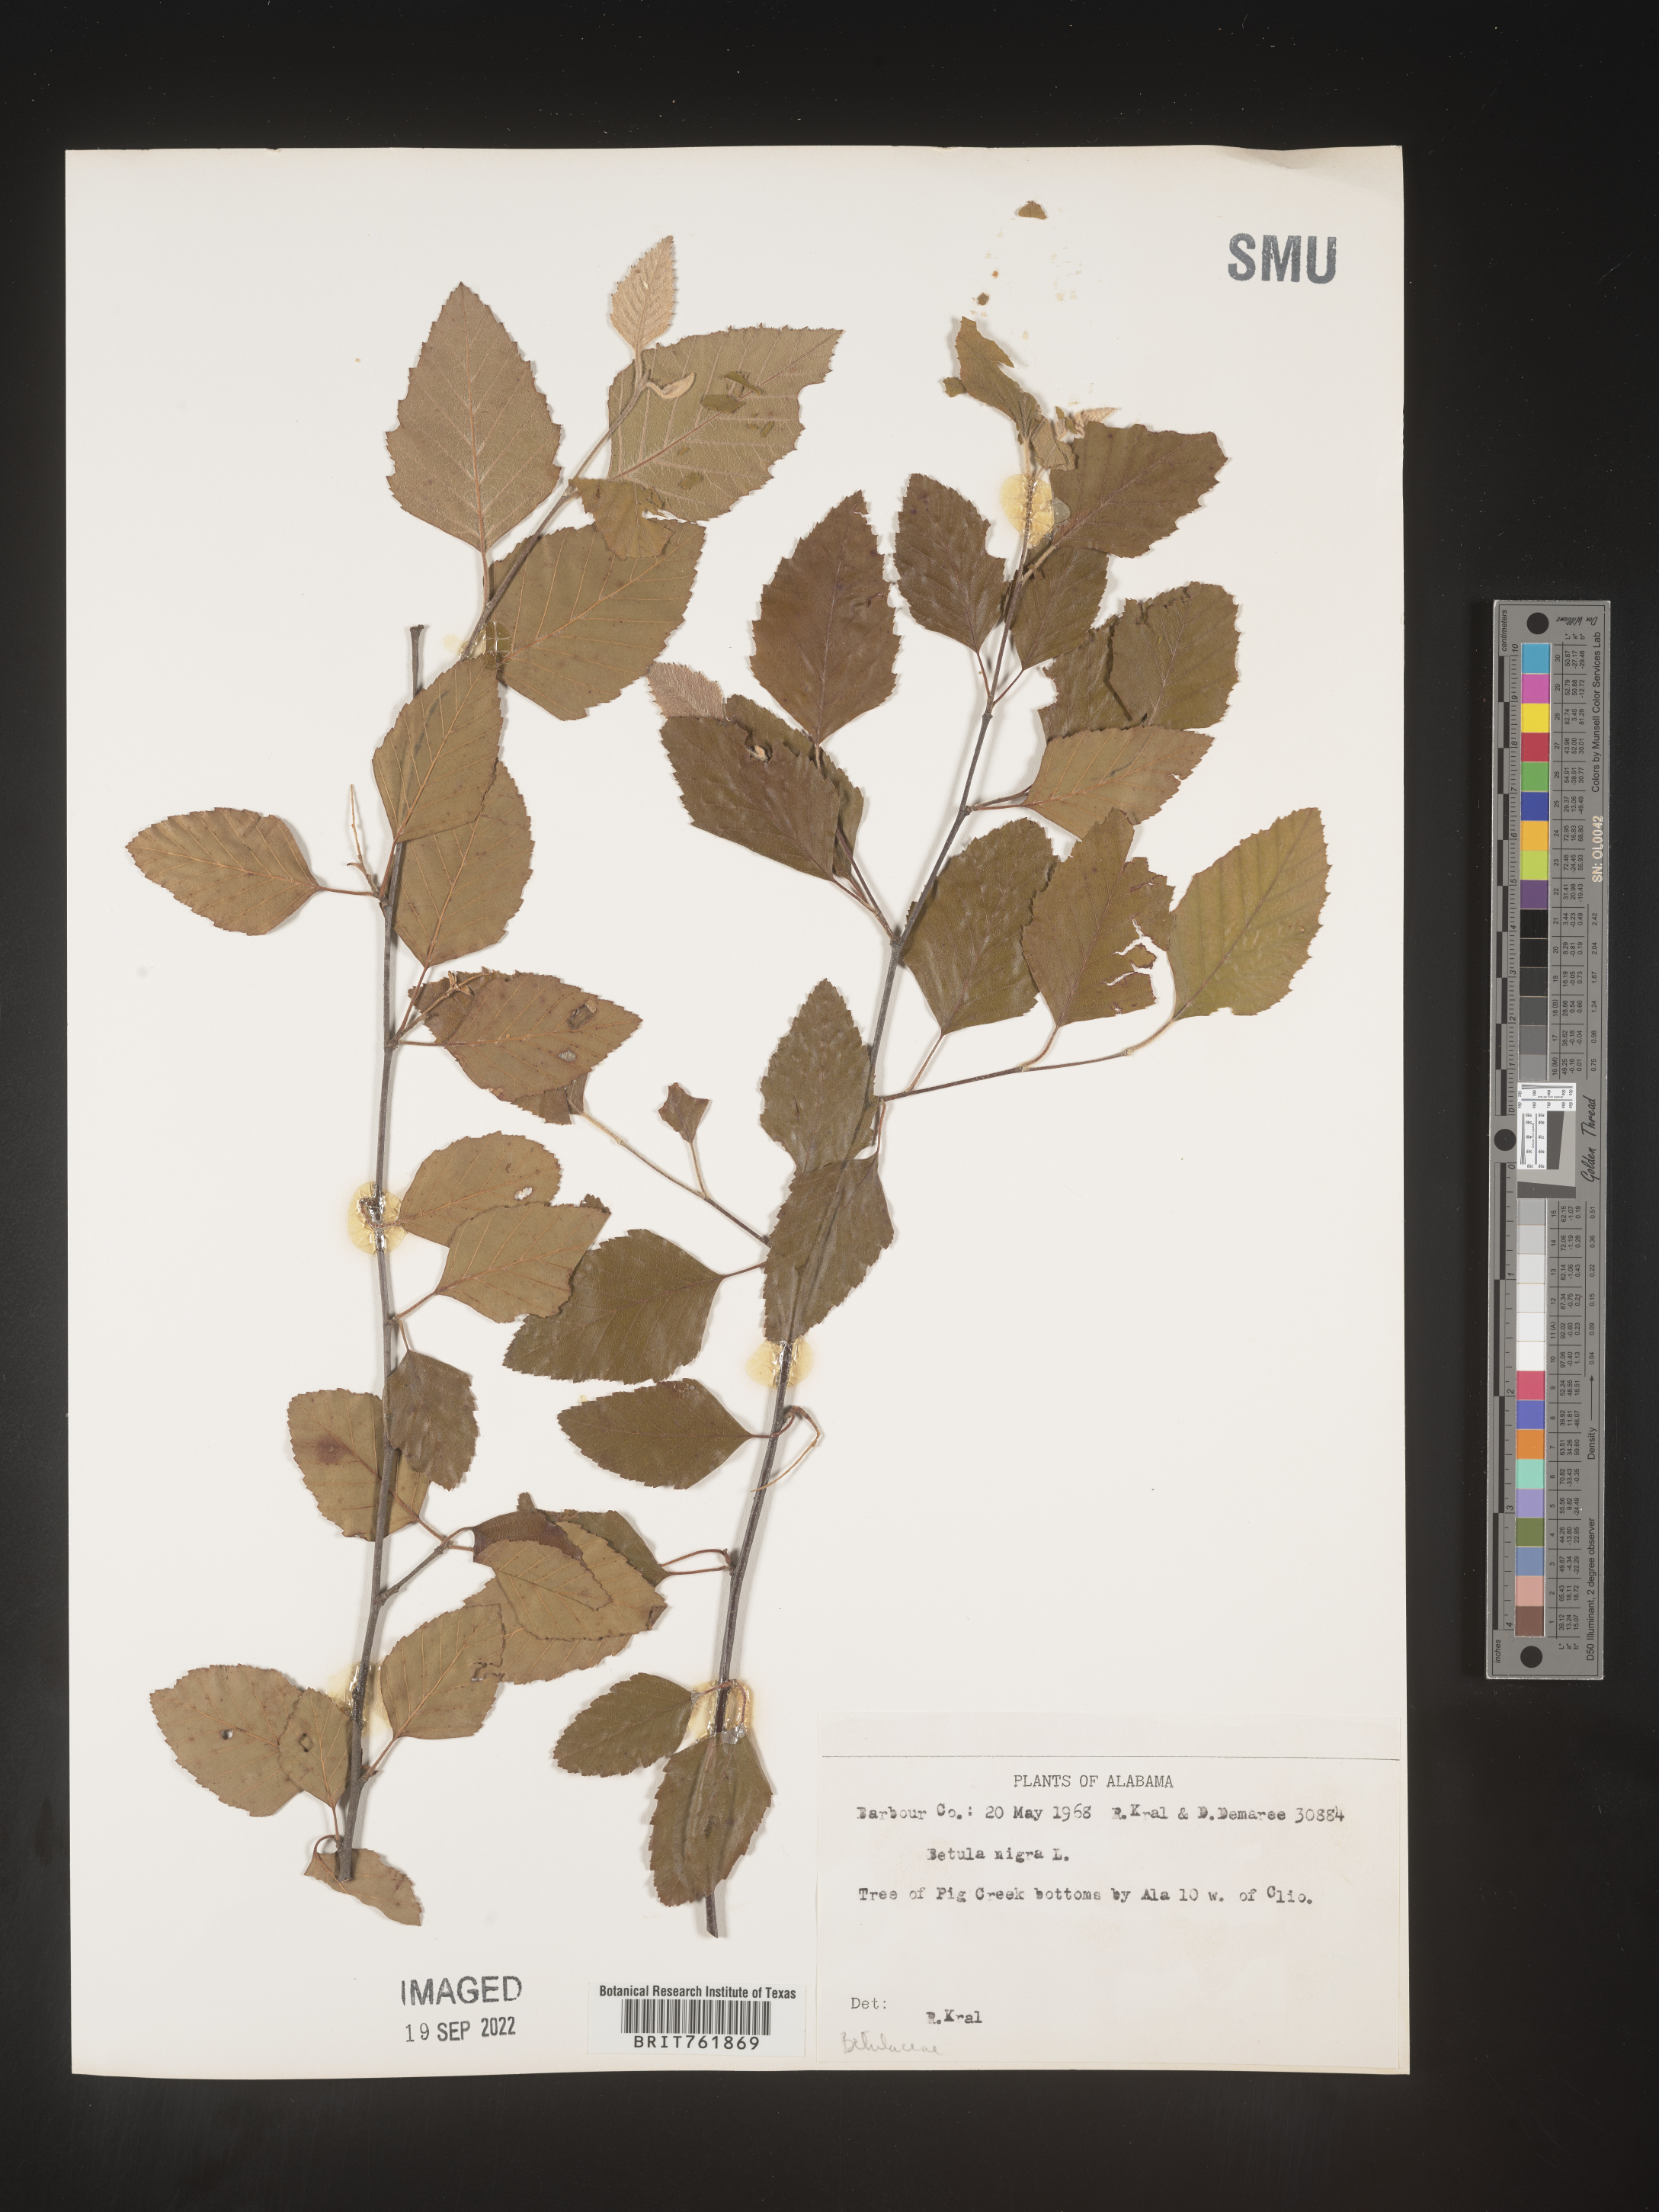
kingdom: Plantae
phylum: Tracheophyta
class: Magnoliopsida
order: Fagales
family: Betulaceae
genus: Betula
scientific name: Betula nigra
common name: Black birch
